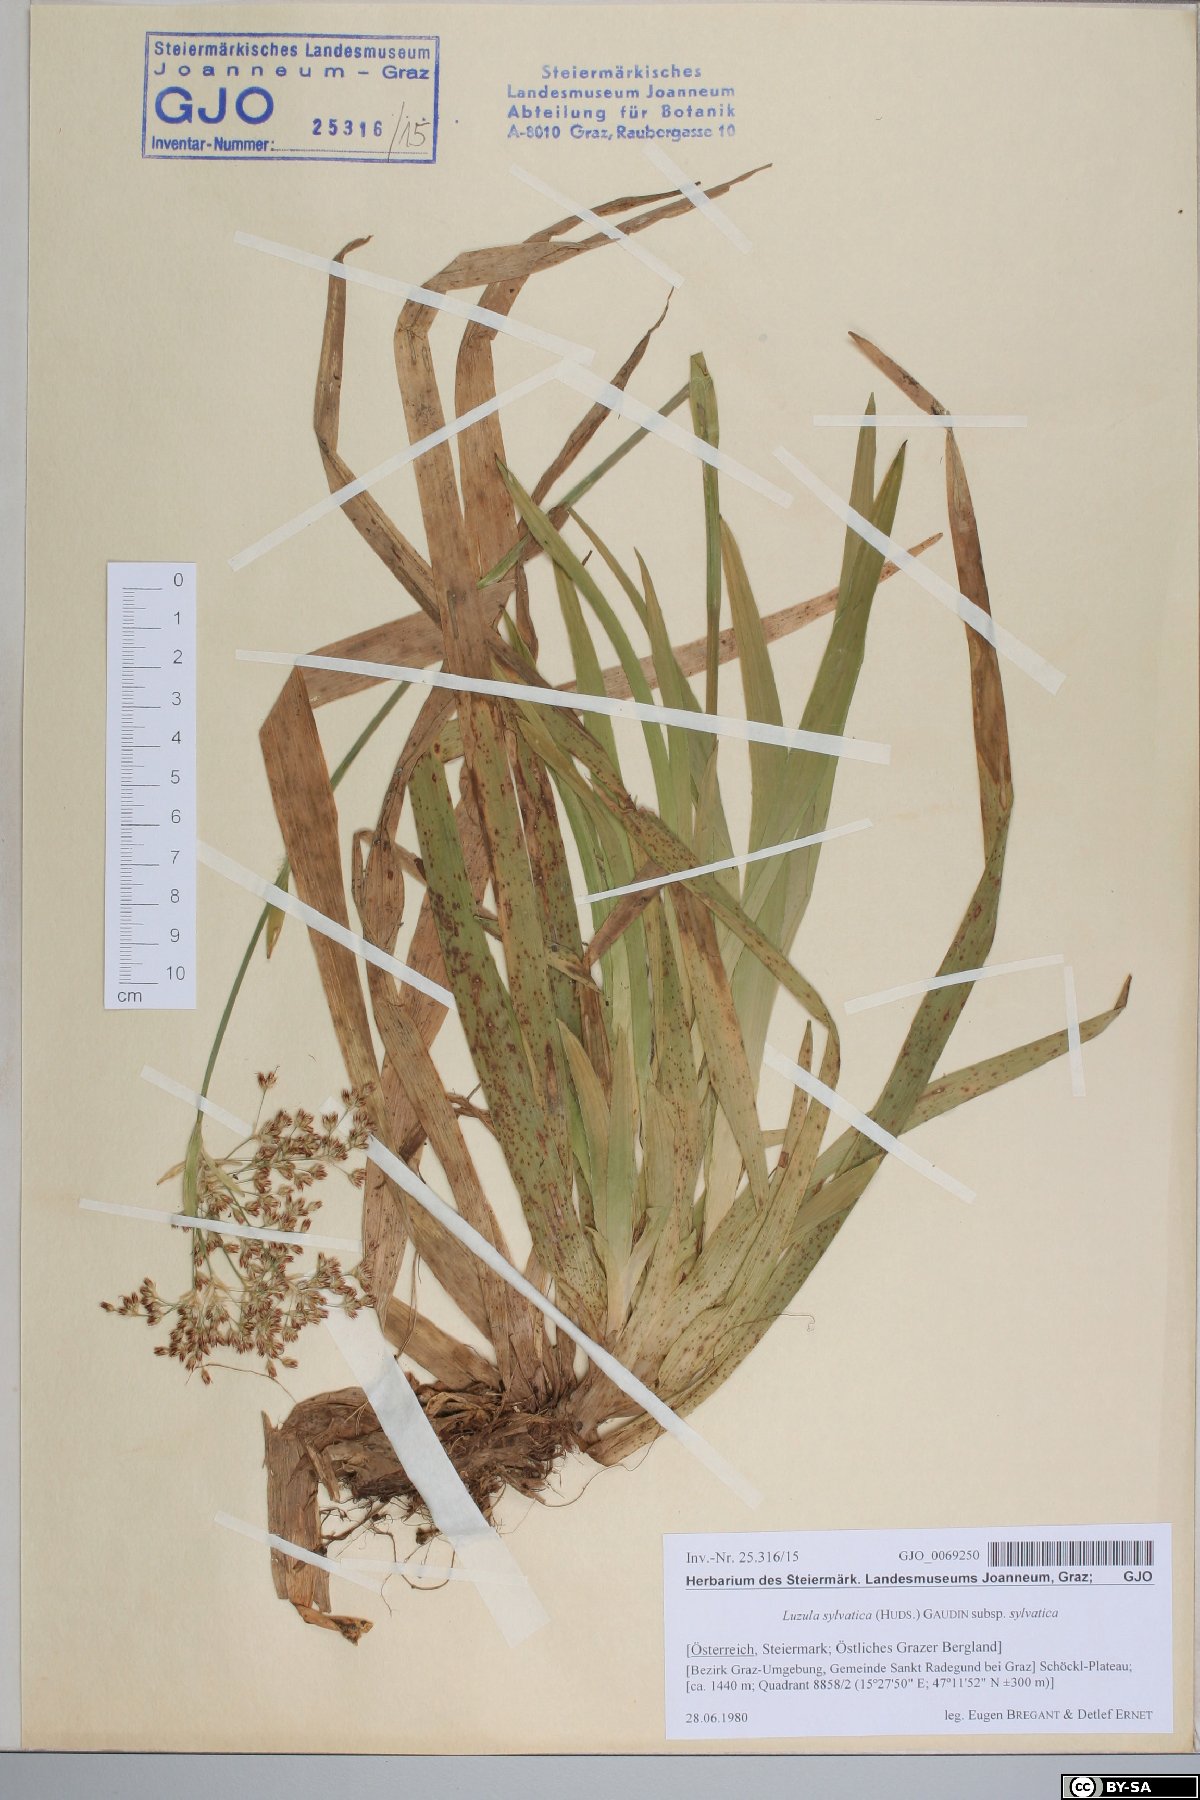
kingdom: Plantae
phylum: Tracheophyta
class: Liliopsida
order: Poales
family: Juncaceae
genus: Luzula
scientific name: Luzula sylvatica
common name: Great wood-rush
